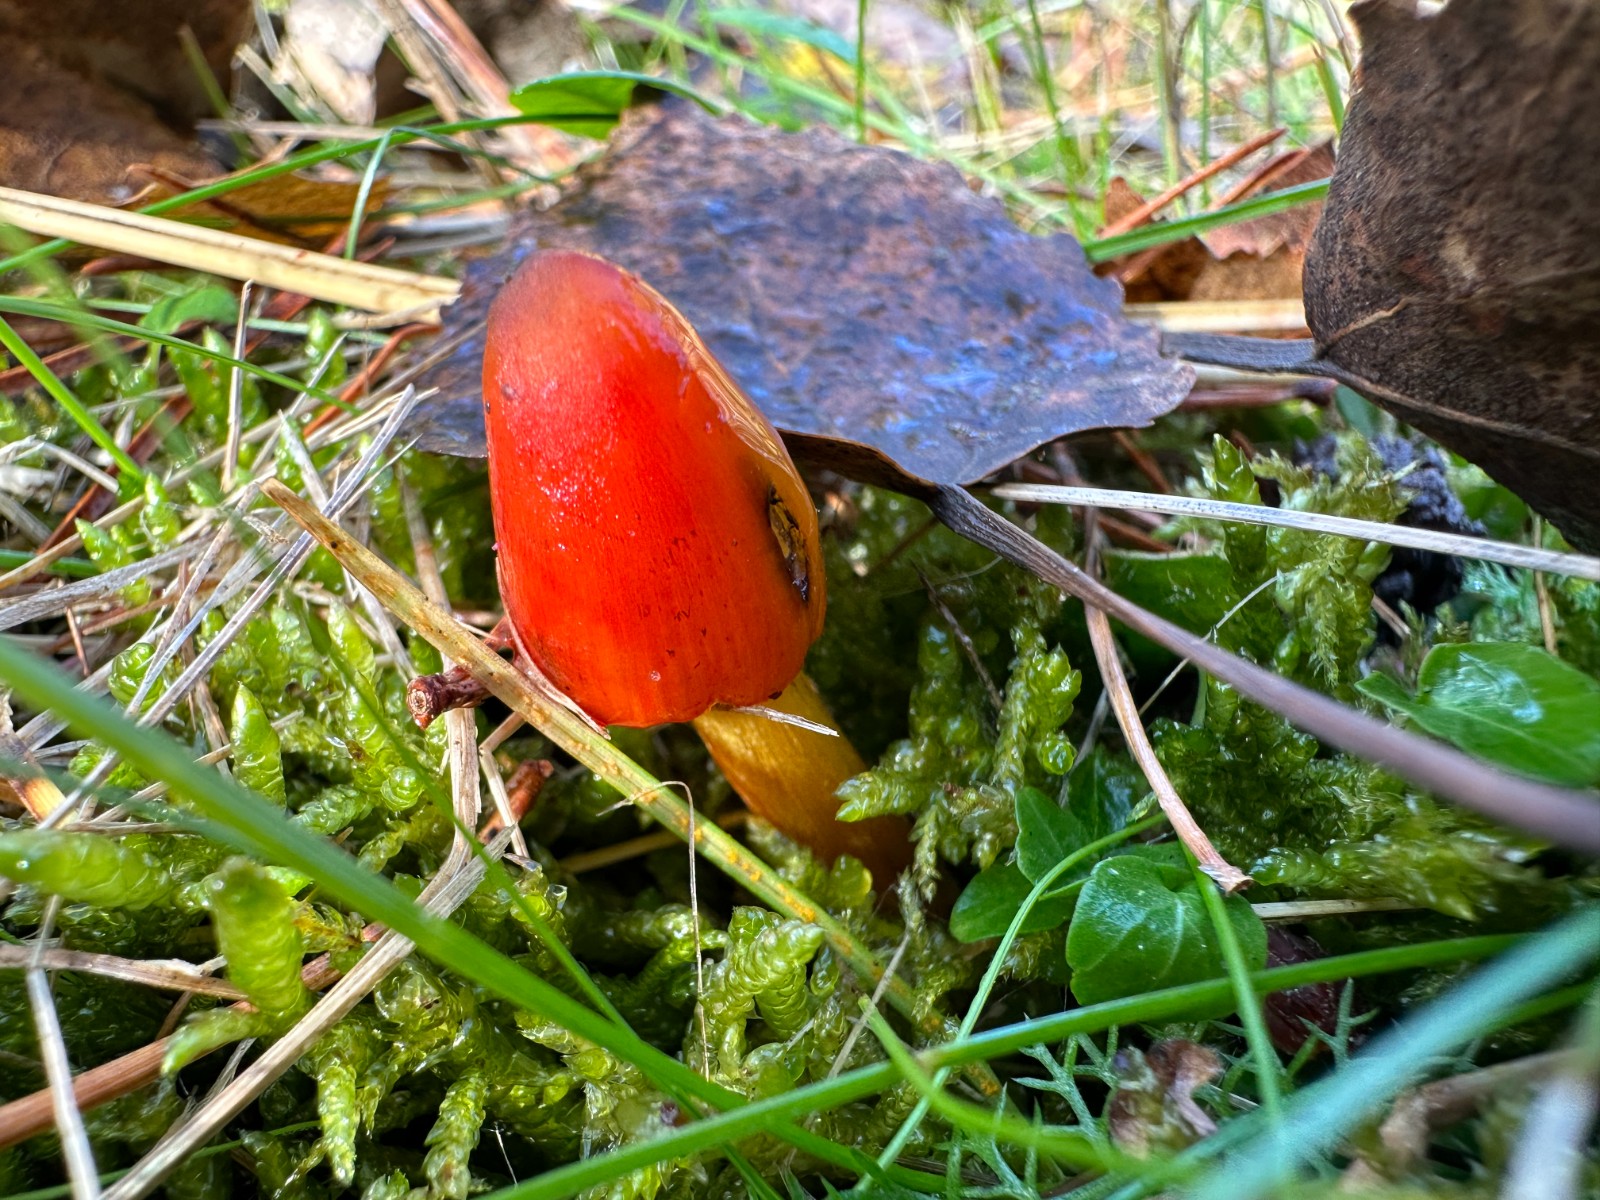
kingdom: Fungi
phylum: Basidiomycota
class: Agaricomycetes
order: Agaricales
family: Hygrophoraceae
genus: Hygrocybe
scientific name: Hygrocybe conica
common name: kegle-vokshat
